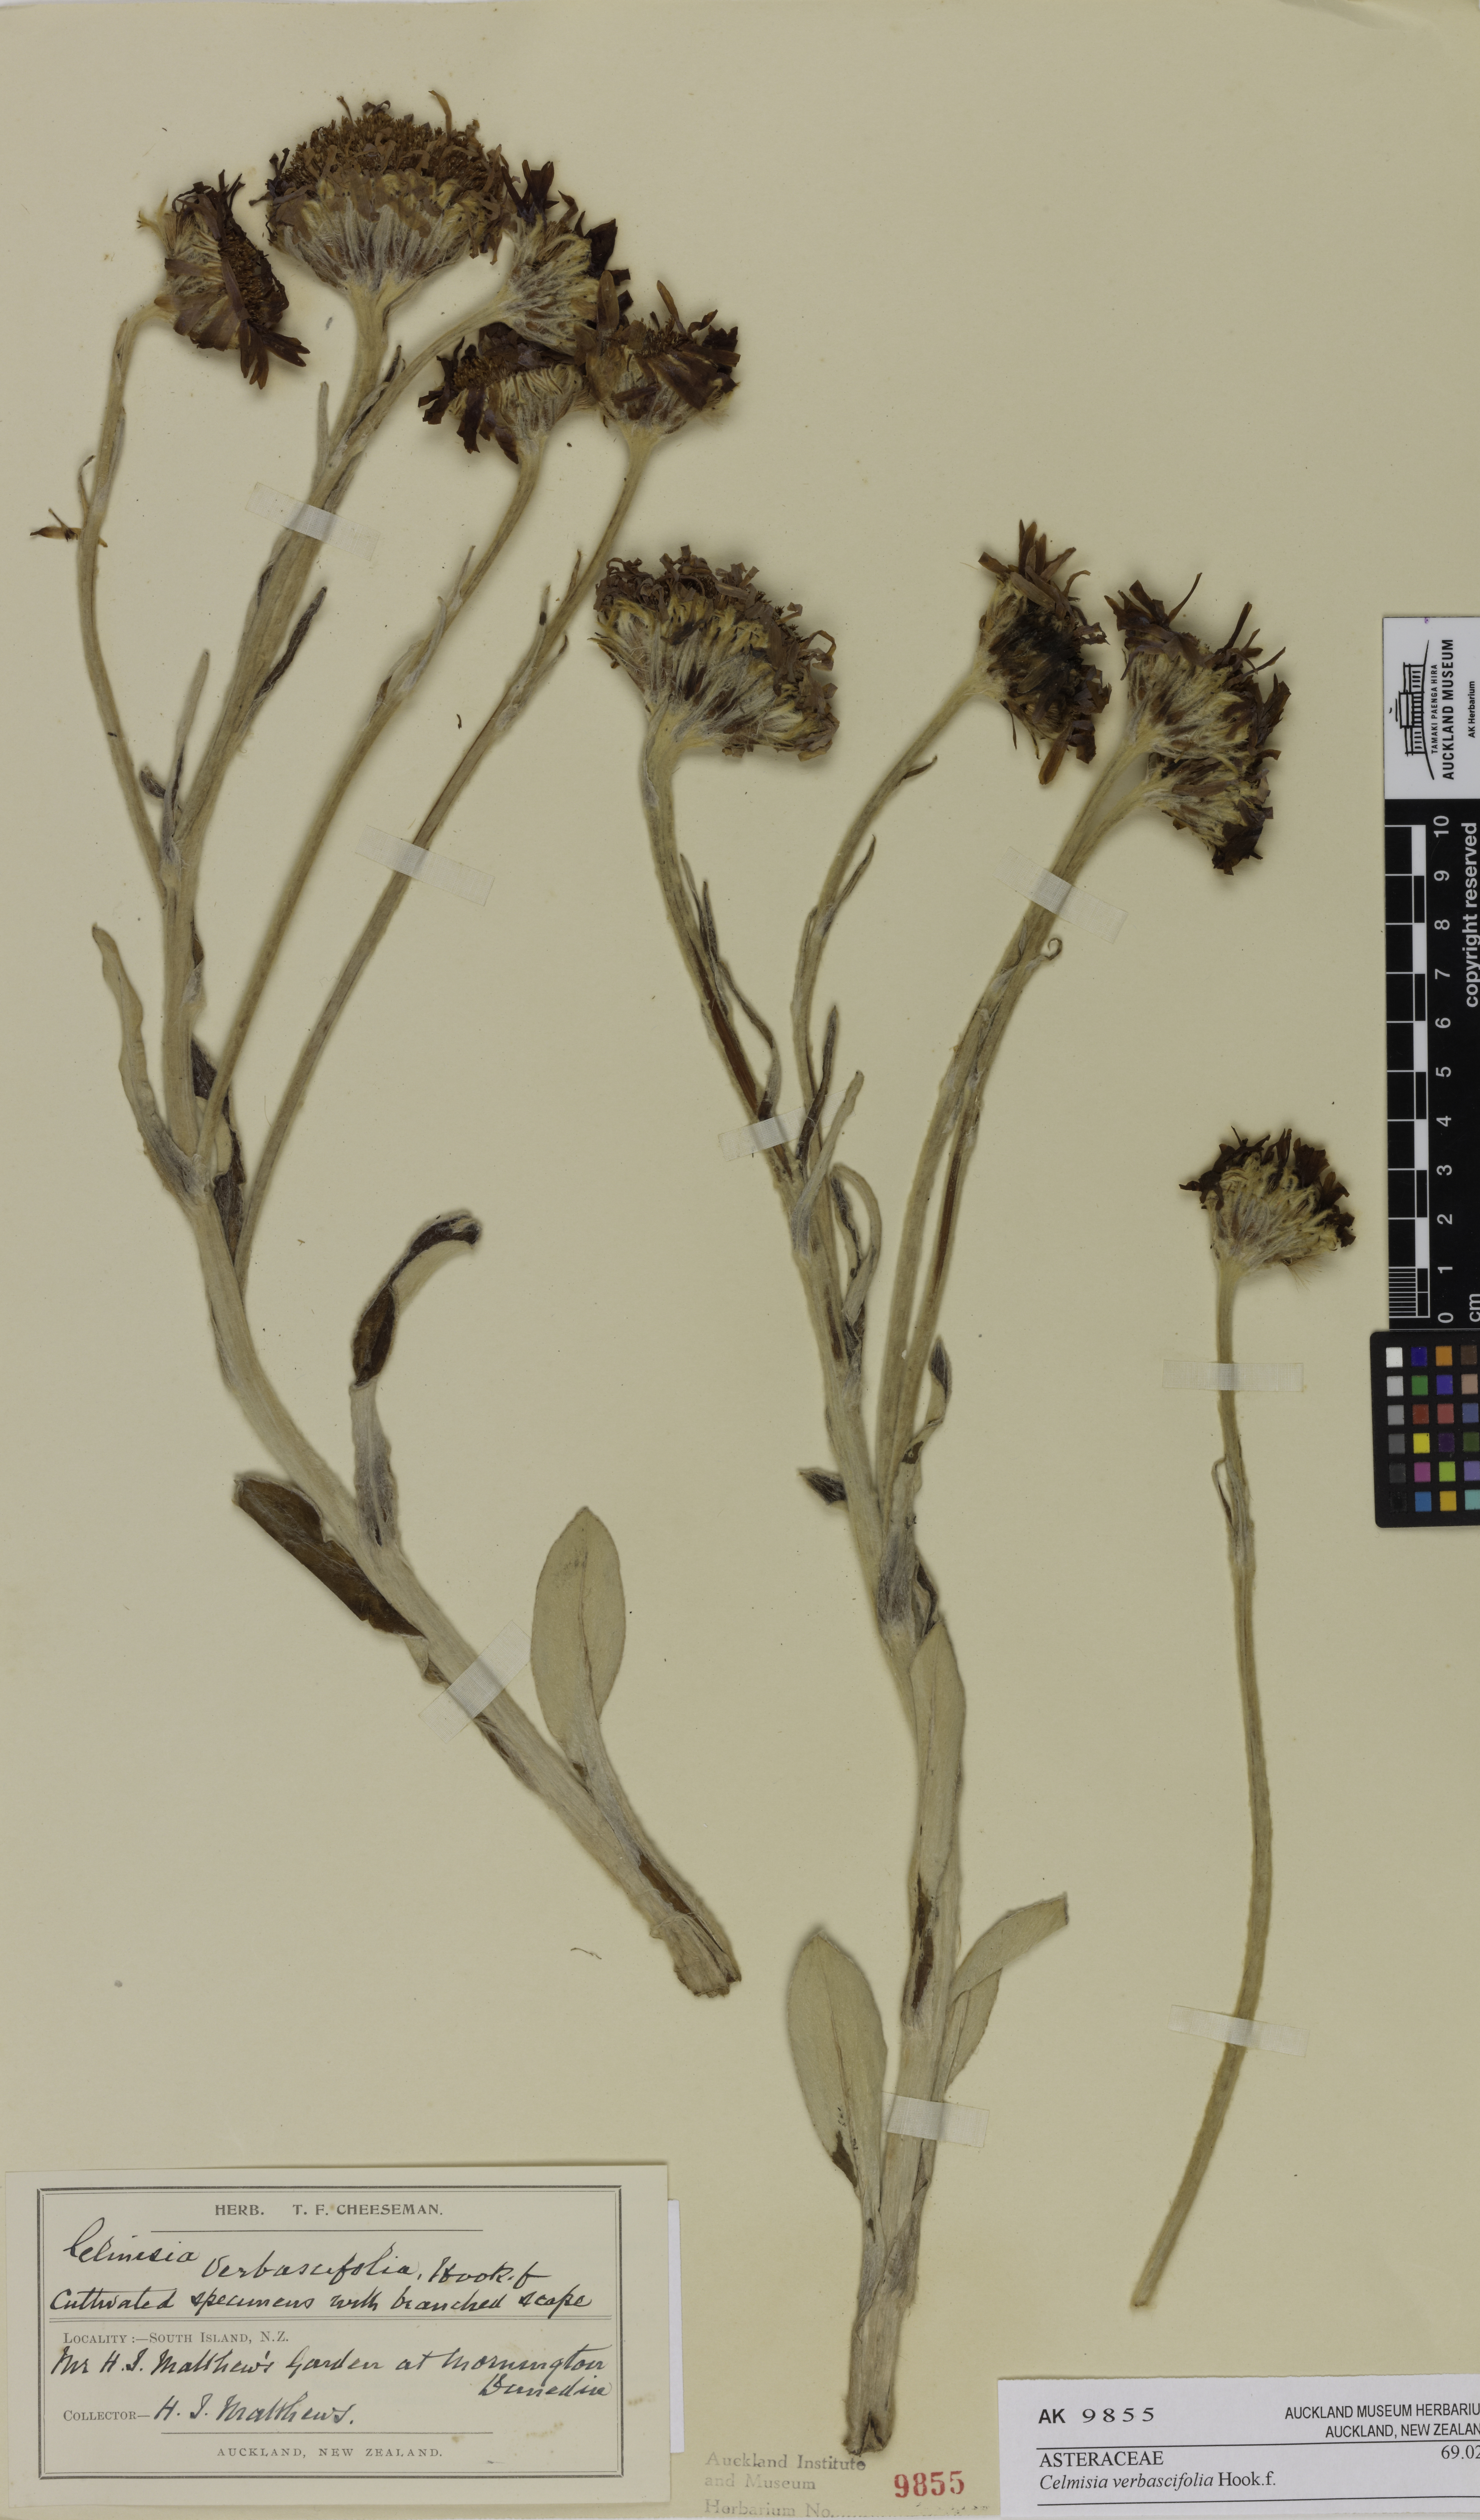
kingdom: Plantae
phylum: Tracheophyta
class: Magnoliopsida
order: Asterales
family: Asteraceae
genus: Celmisia
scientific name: Celmisia verbascifolia
